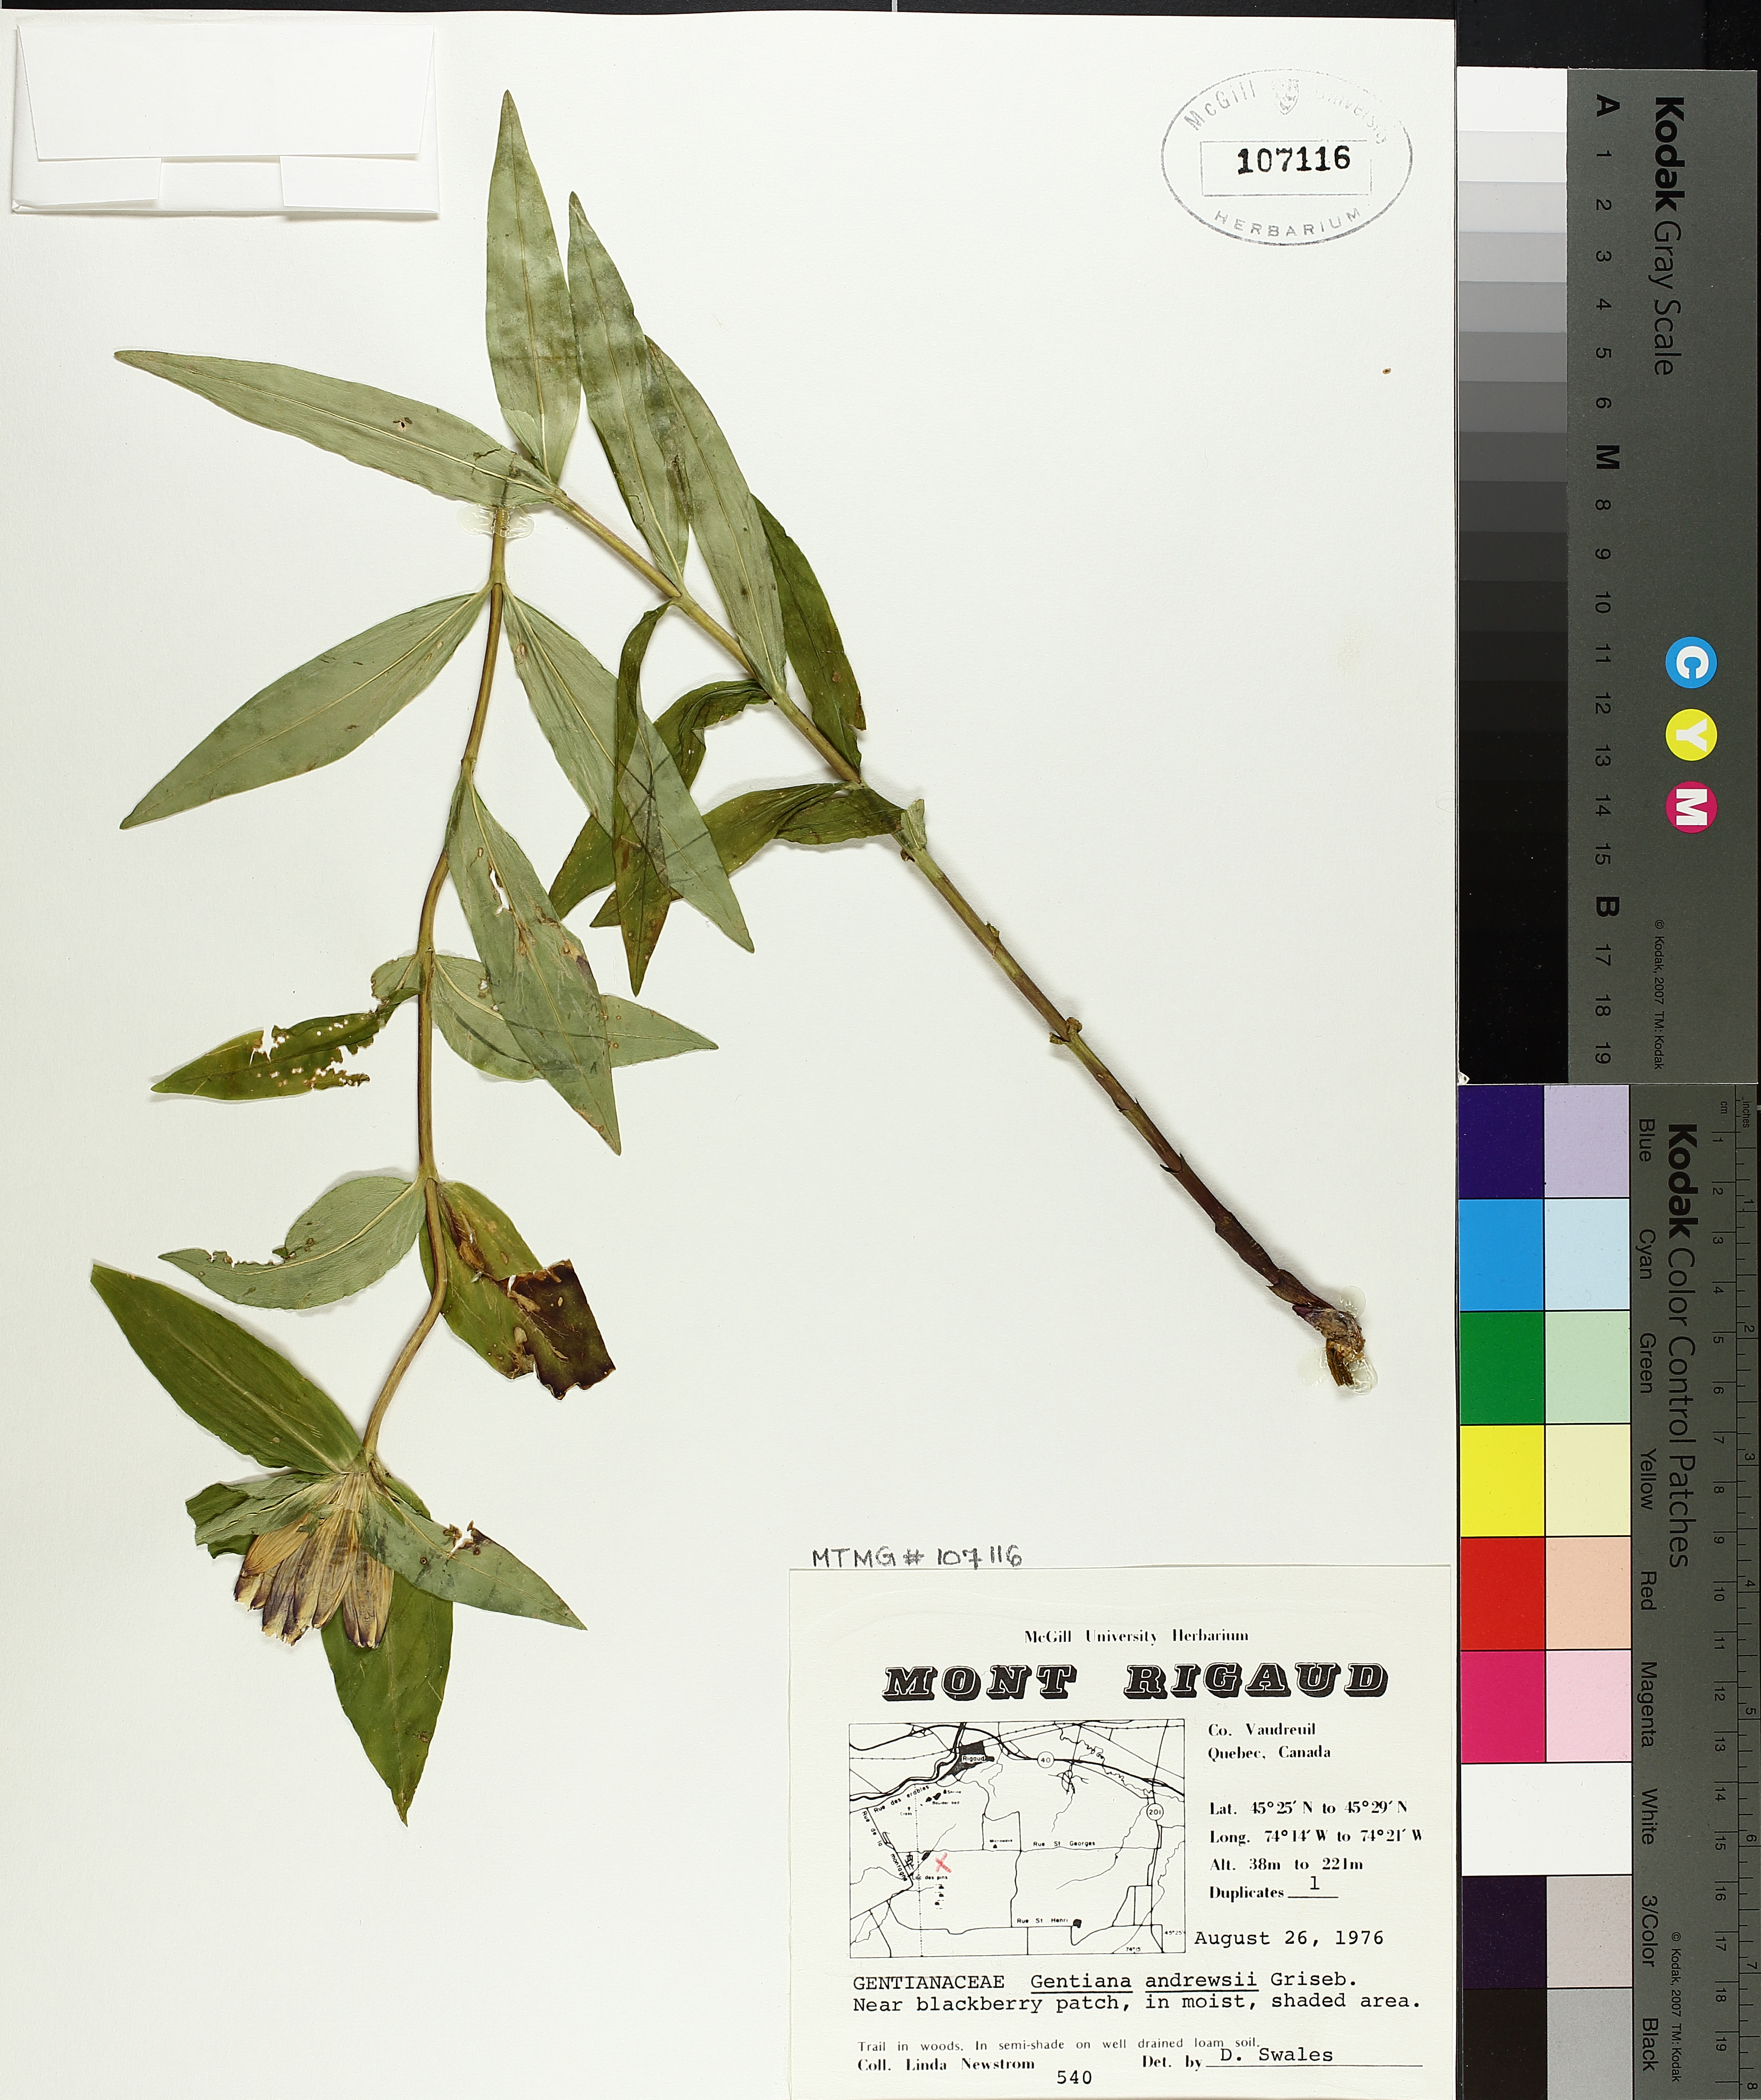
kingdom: Plantae
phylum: Tracheophyta
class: Magnoliopsida
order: Gentianales
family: Gentianaceae
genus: Gentiana
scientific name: Gentiana andrewsii
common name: Bottle gentian
